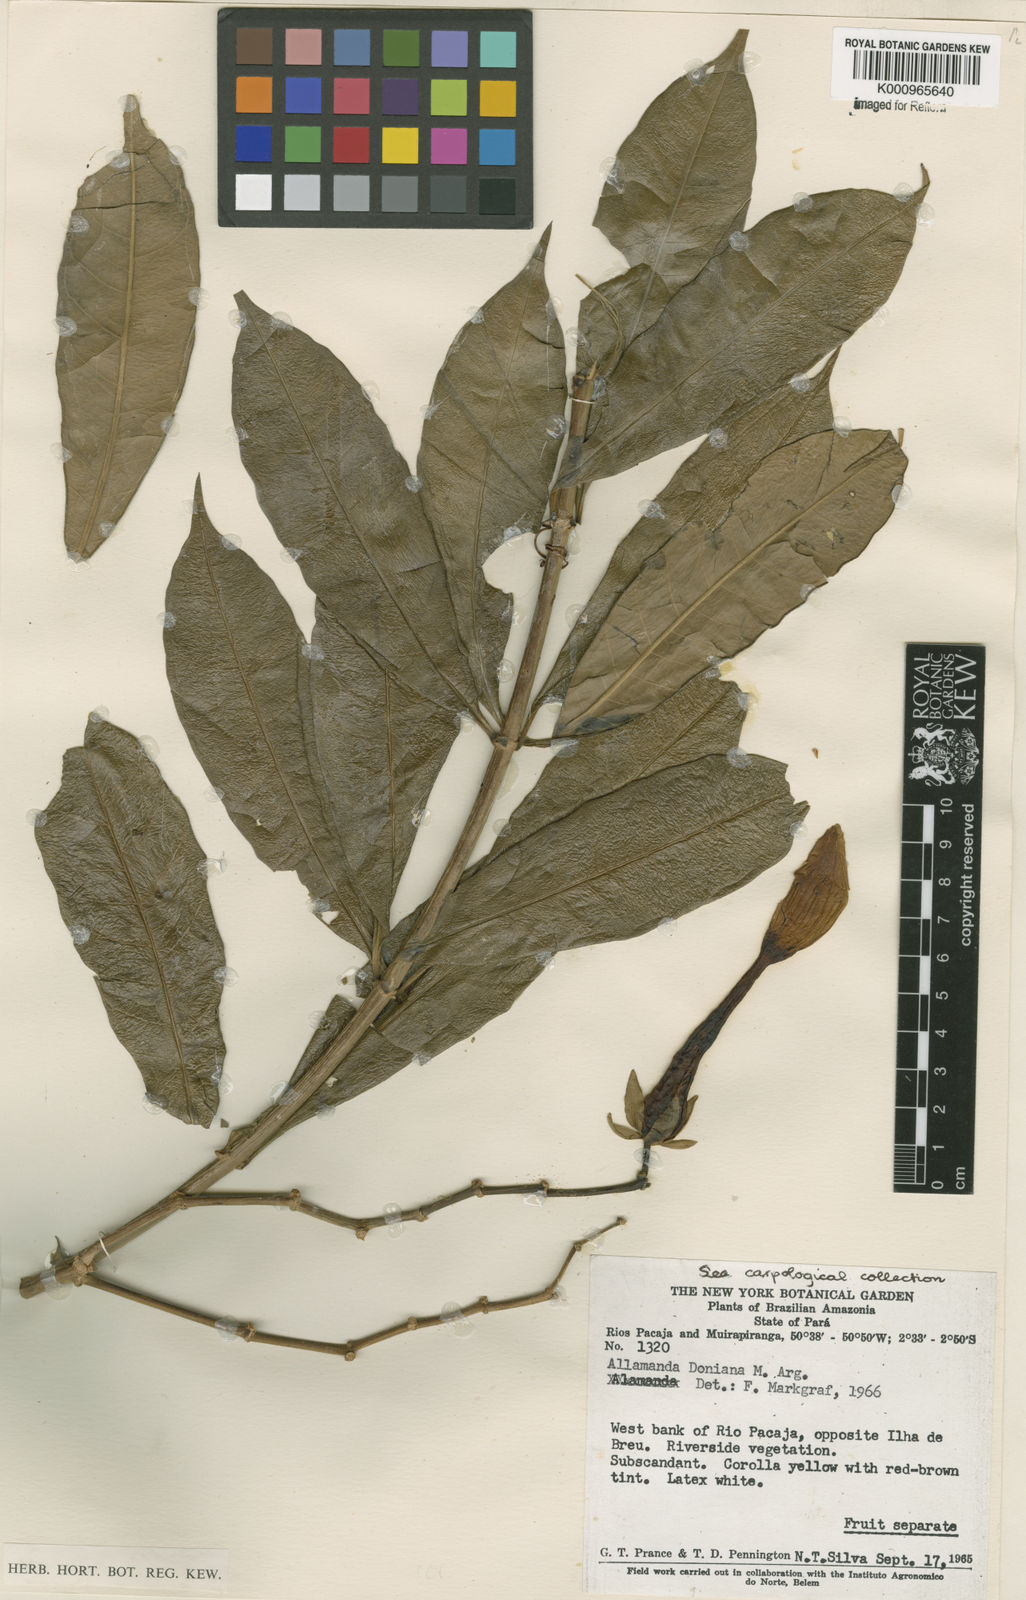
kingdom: Plantae
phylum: Tracheophyta
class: Magnoliopsida
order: Gentianales
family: Apocynaceae
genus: Allamanda
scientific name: Allamanda
